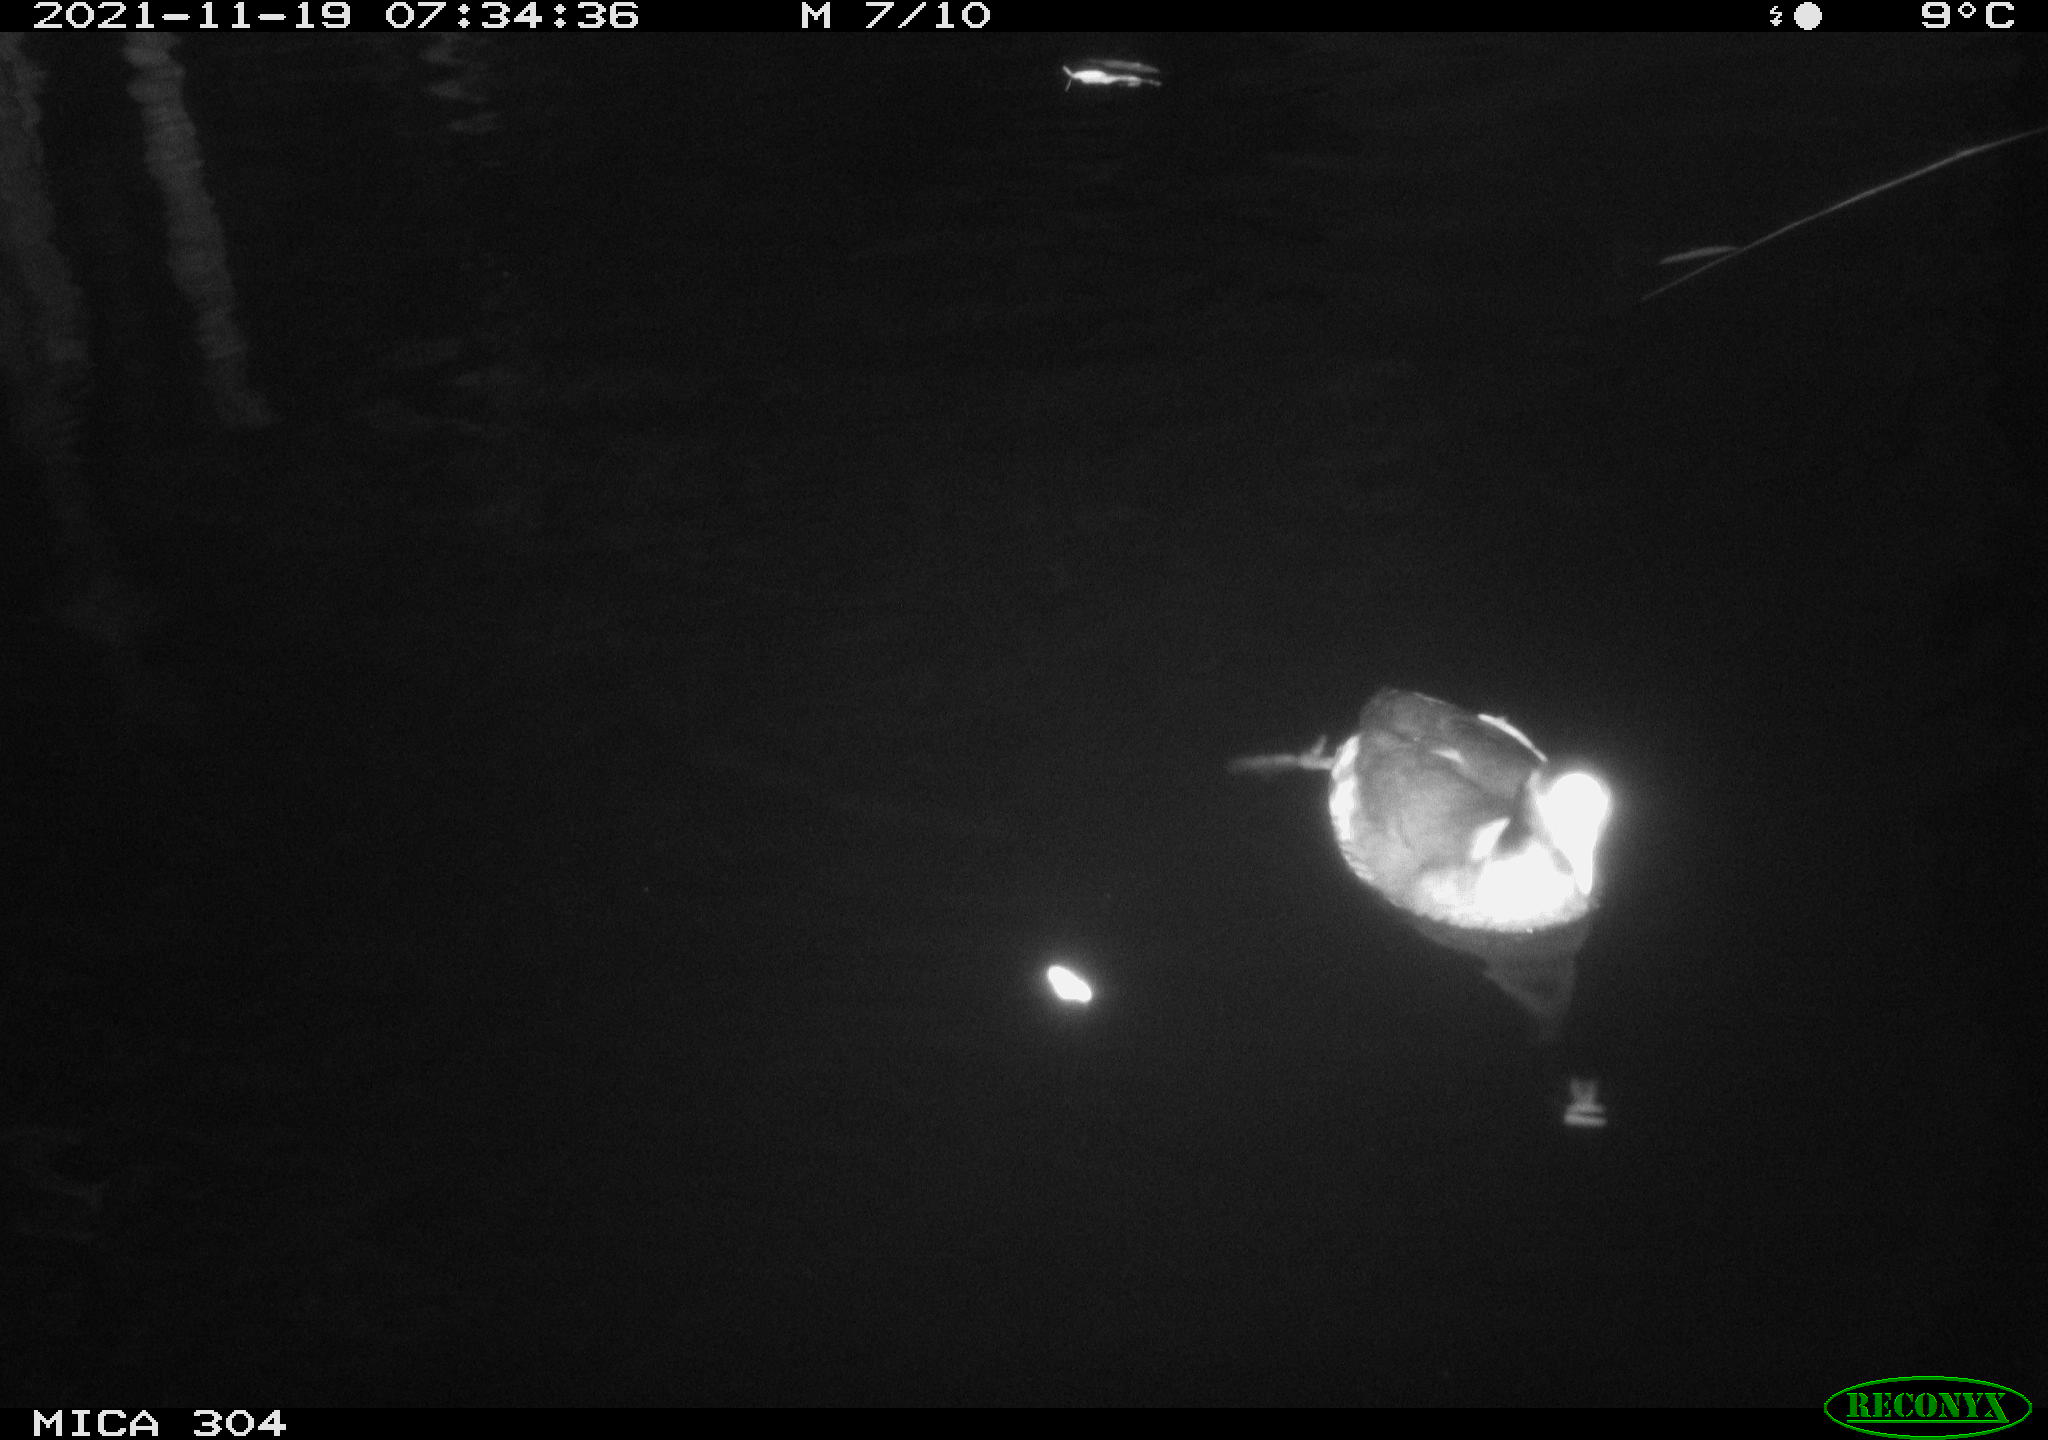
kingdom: Animalia
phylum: Chordata
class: Aves
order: Gruiformes
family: Rallidae
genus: Fulica
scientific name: Fulica atra
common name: Eurasian coot
